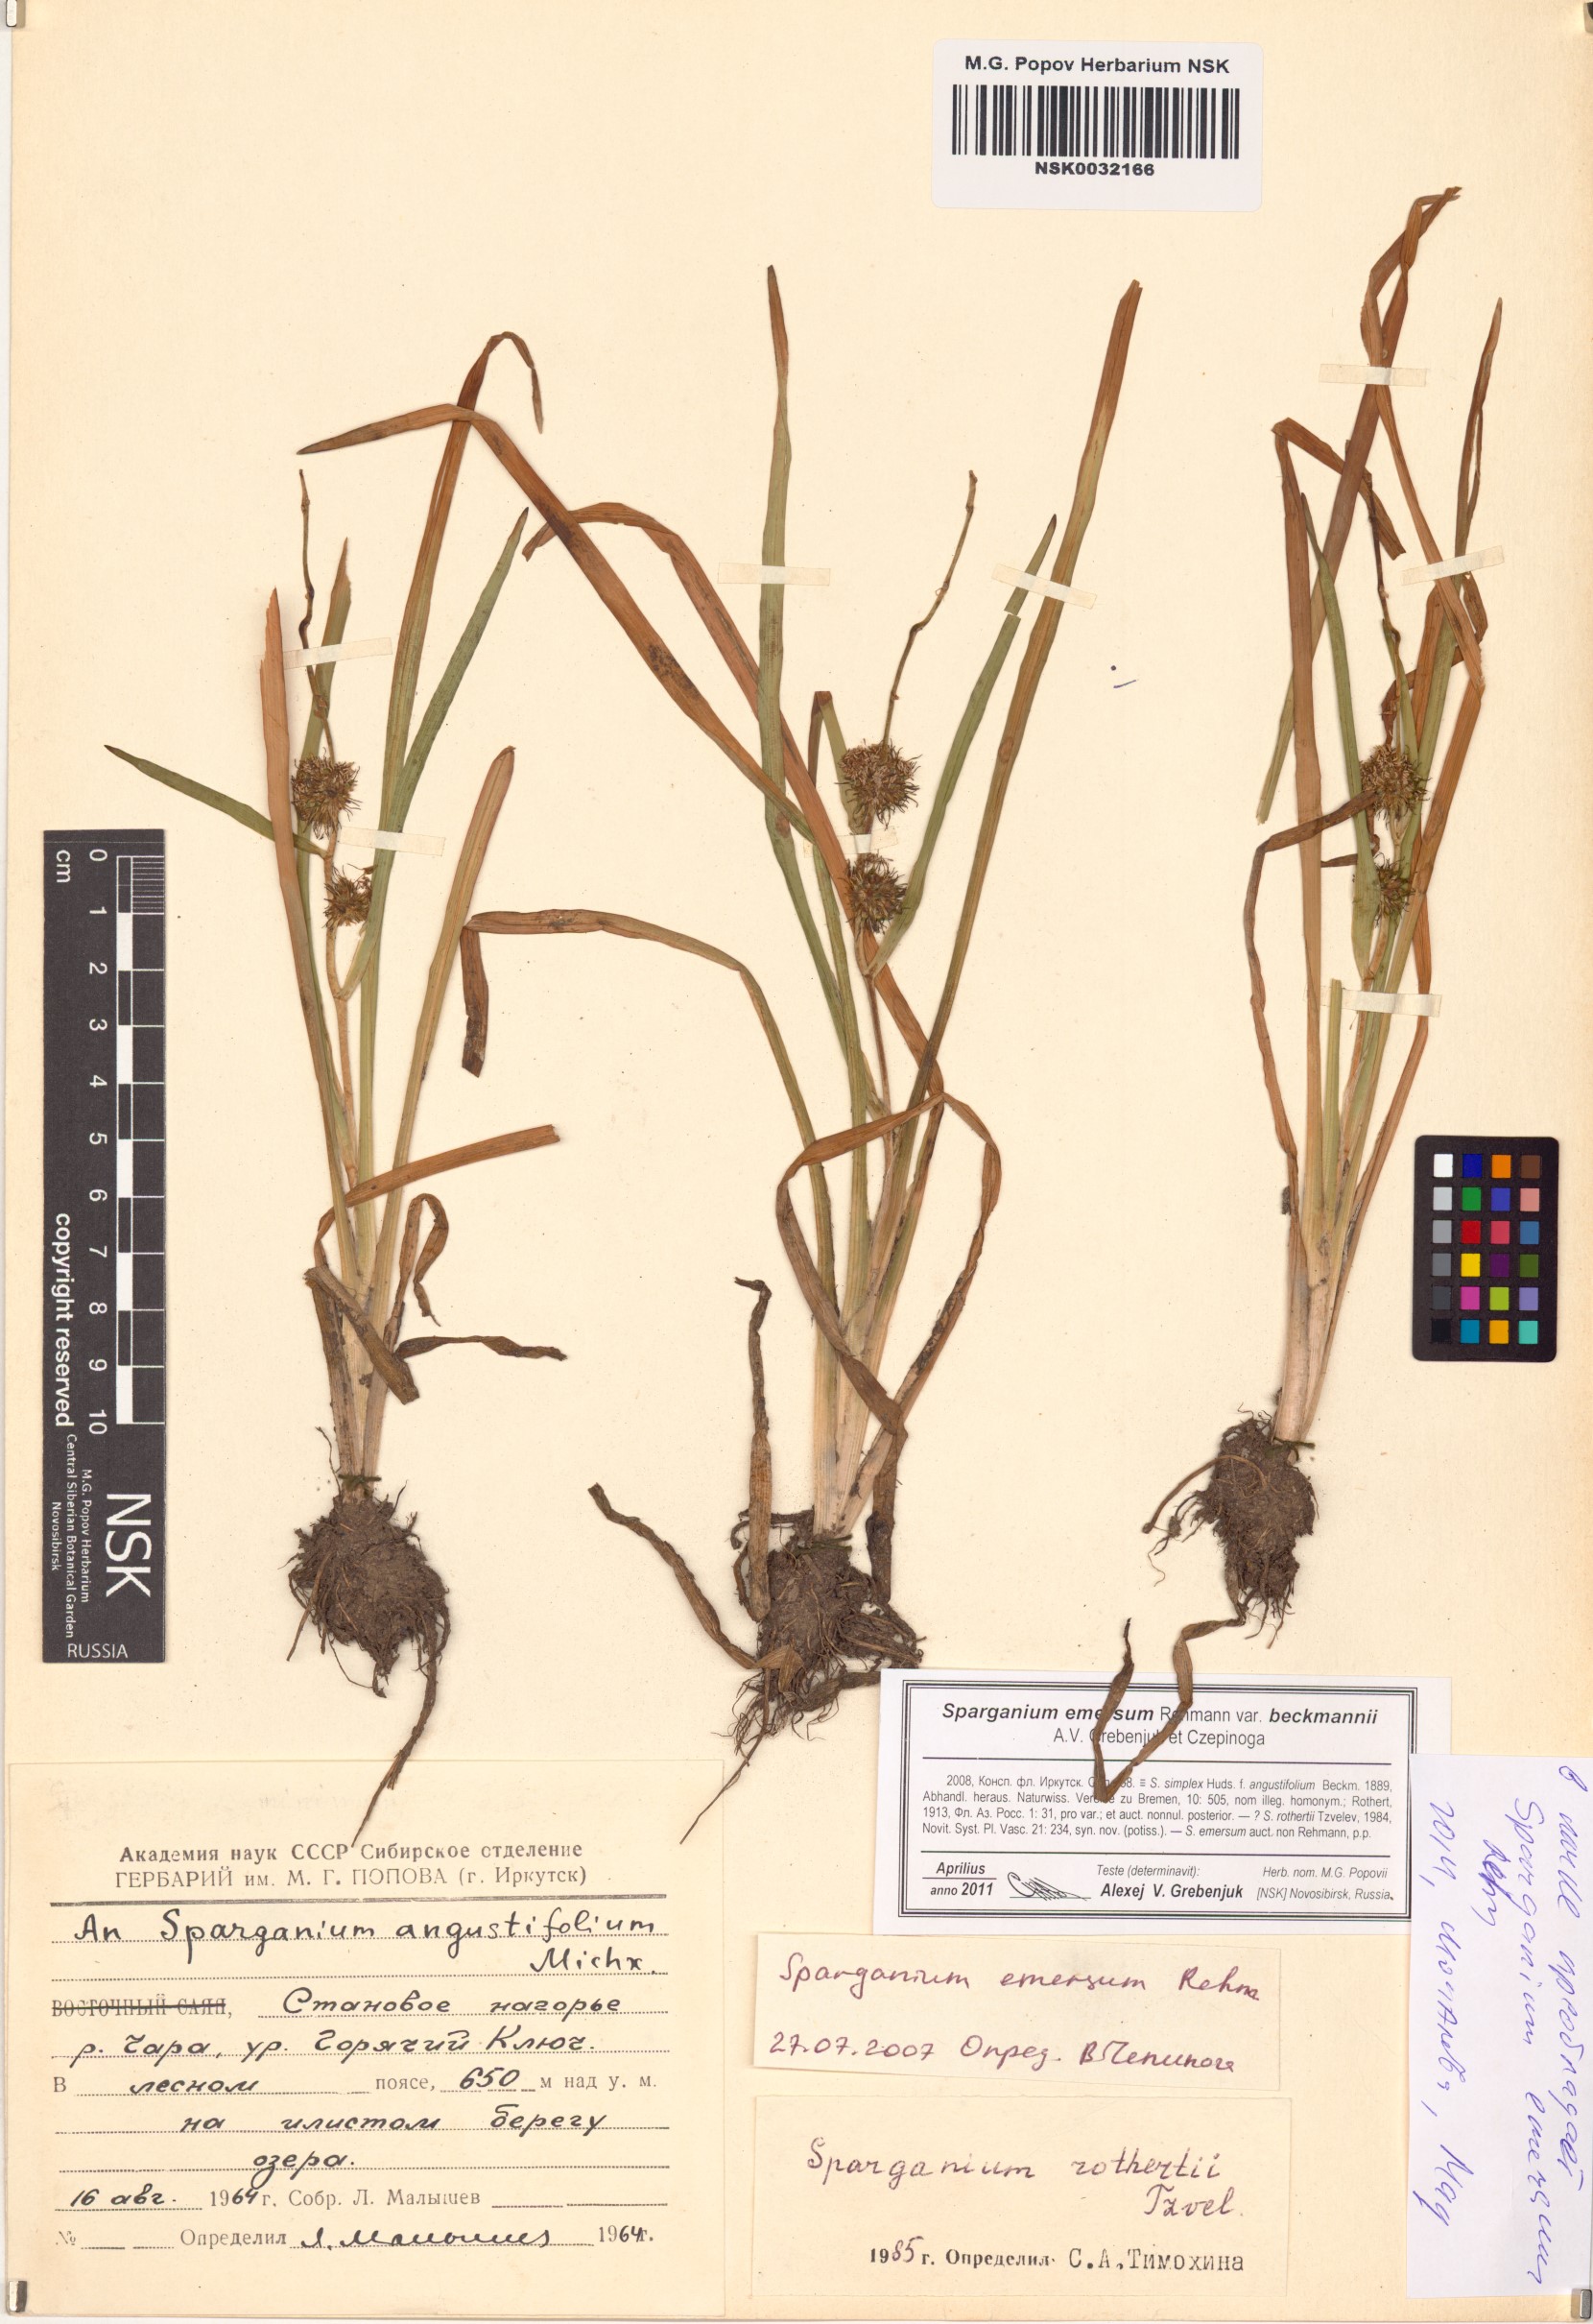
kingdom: Plantae
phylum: Tracheophyta
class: Liliopsida
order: Poales
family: Typhaceae
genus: Sparganium
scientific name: Sparganium emersum
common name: Unbranched bur-reed
